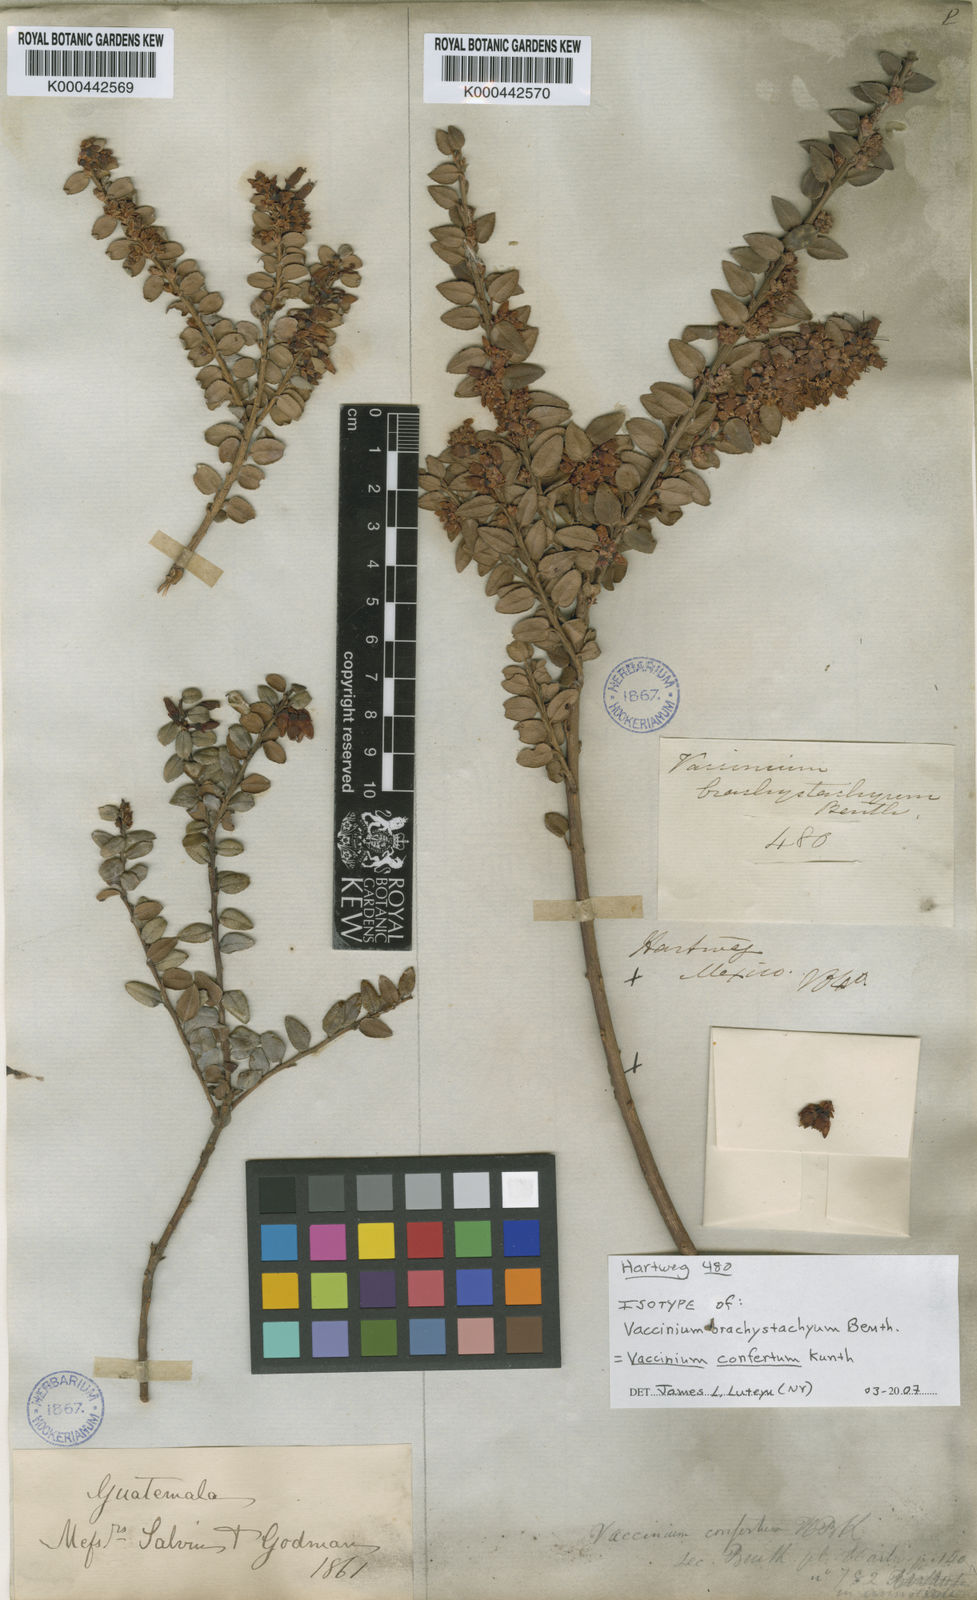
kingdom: Plantae
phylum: Tracheophyta
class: Magnoliopsida
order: Ericales
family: Ericaceae
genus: Vaccinium
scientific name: Vaccinium confertum
